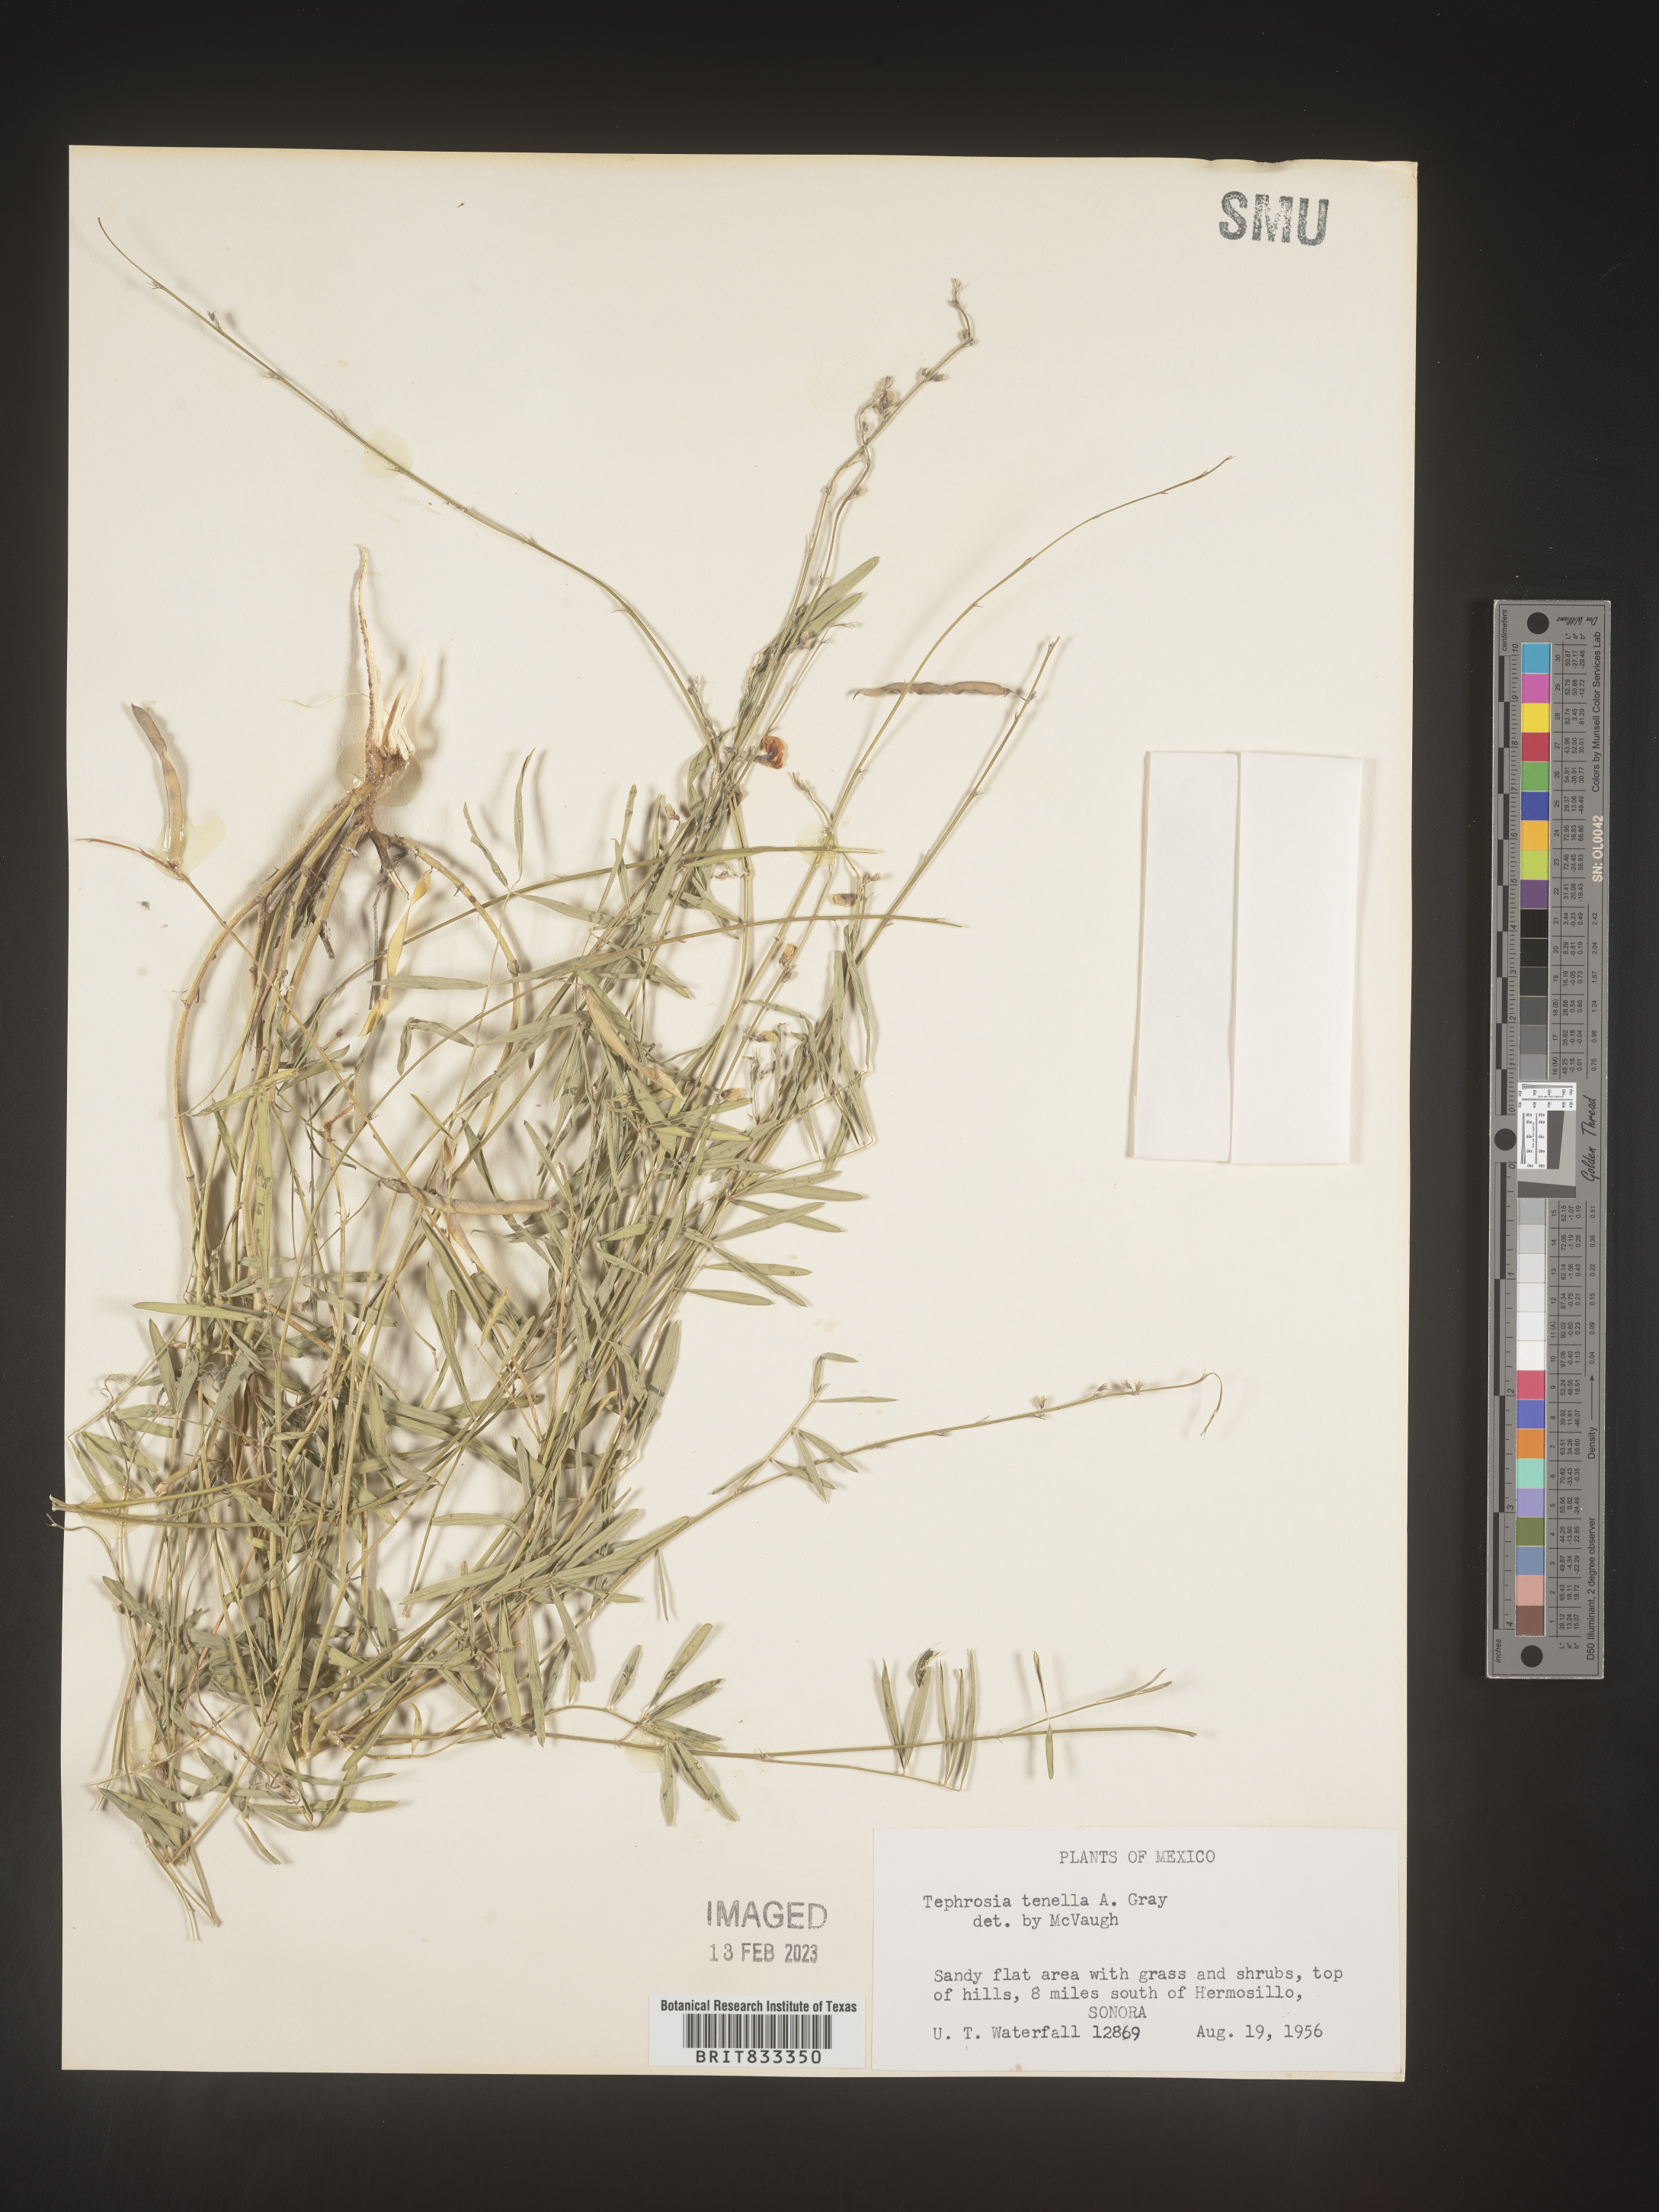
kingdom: Plantae
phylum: Tracheophyta
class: Magnoliopsida
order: Fabales
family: Fabaceae
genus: Tephrosia
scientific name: Tephrosia
